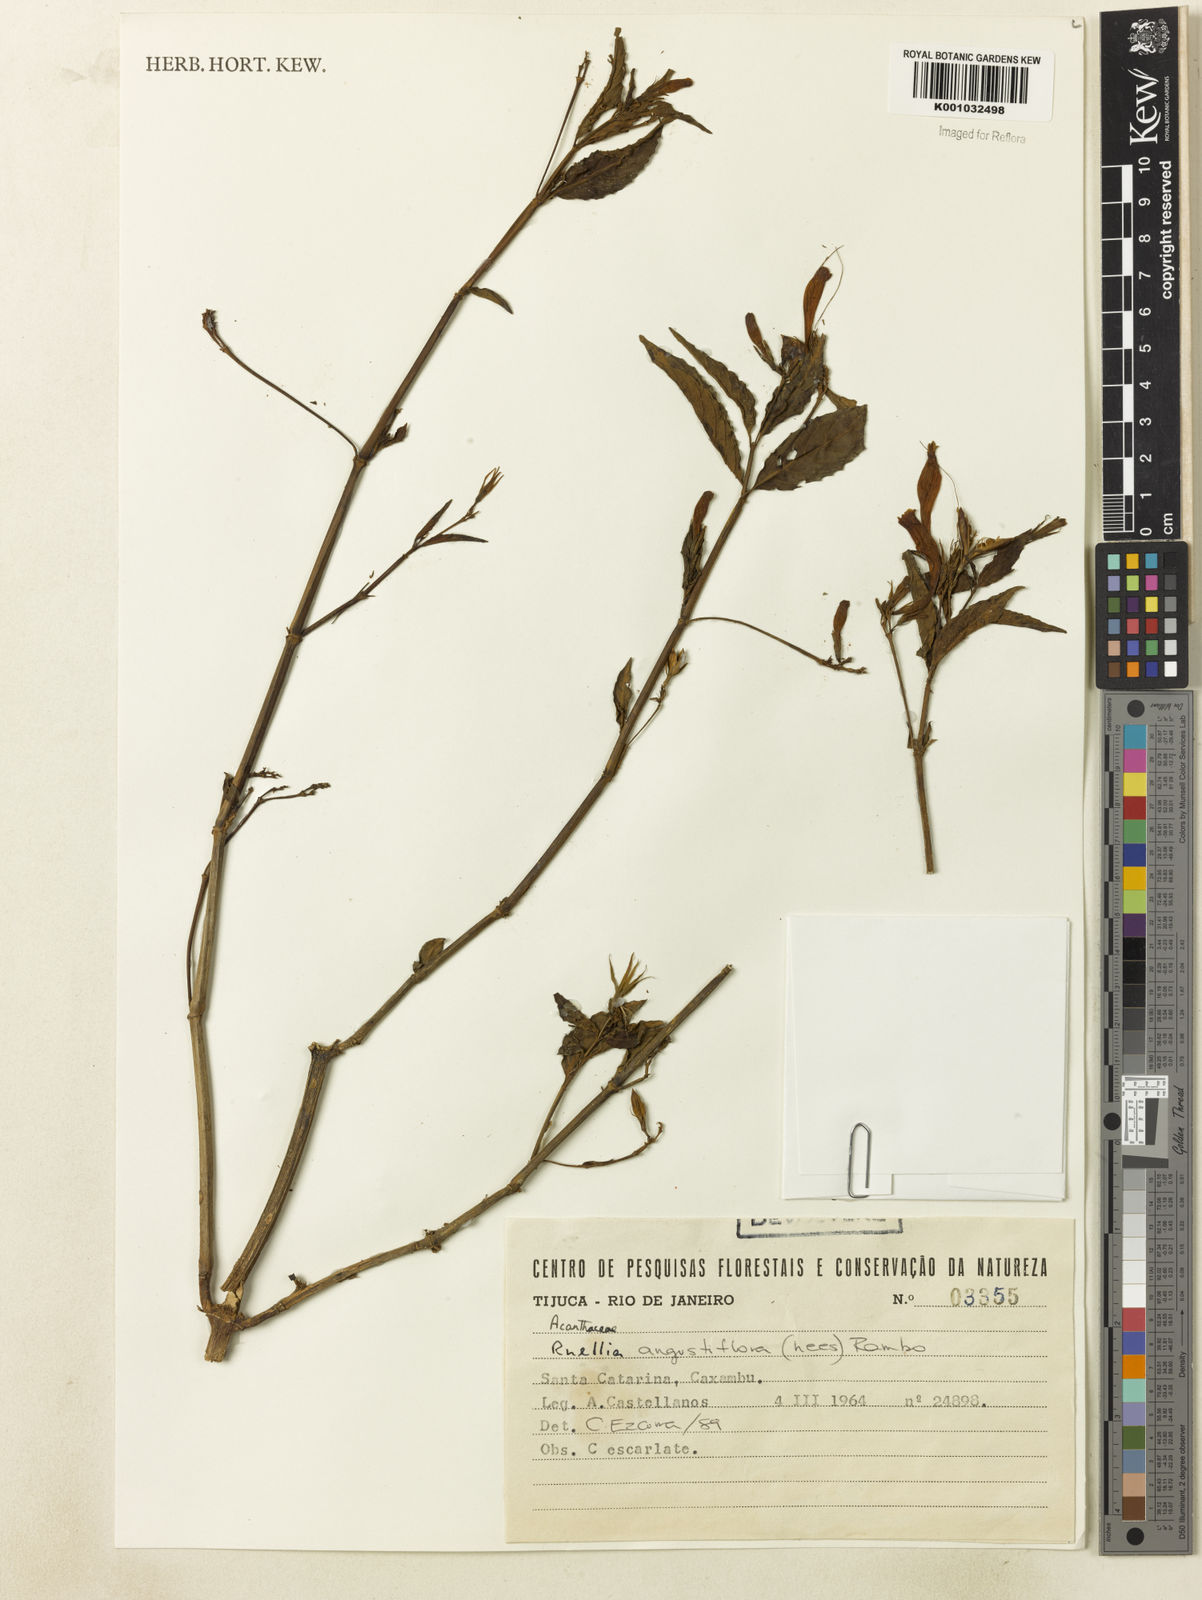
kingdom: Plantae
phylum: Tracheophyta
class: Magnoliopsida
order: Lamiales
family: Acanthaceae
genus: Ruellia
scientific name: Ruellia angustiflora
